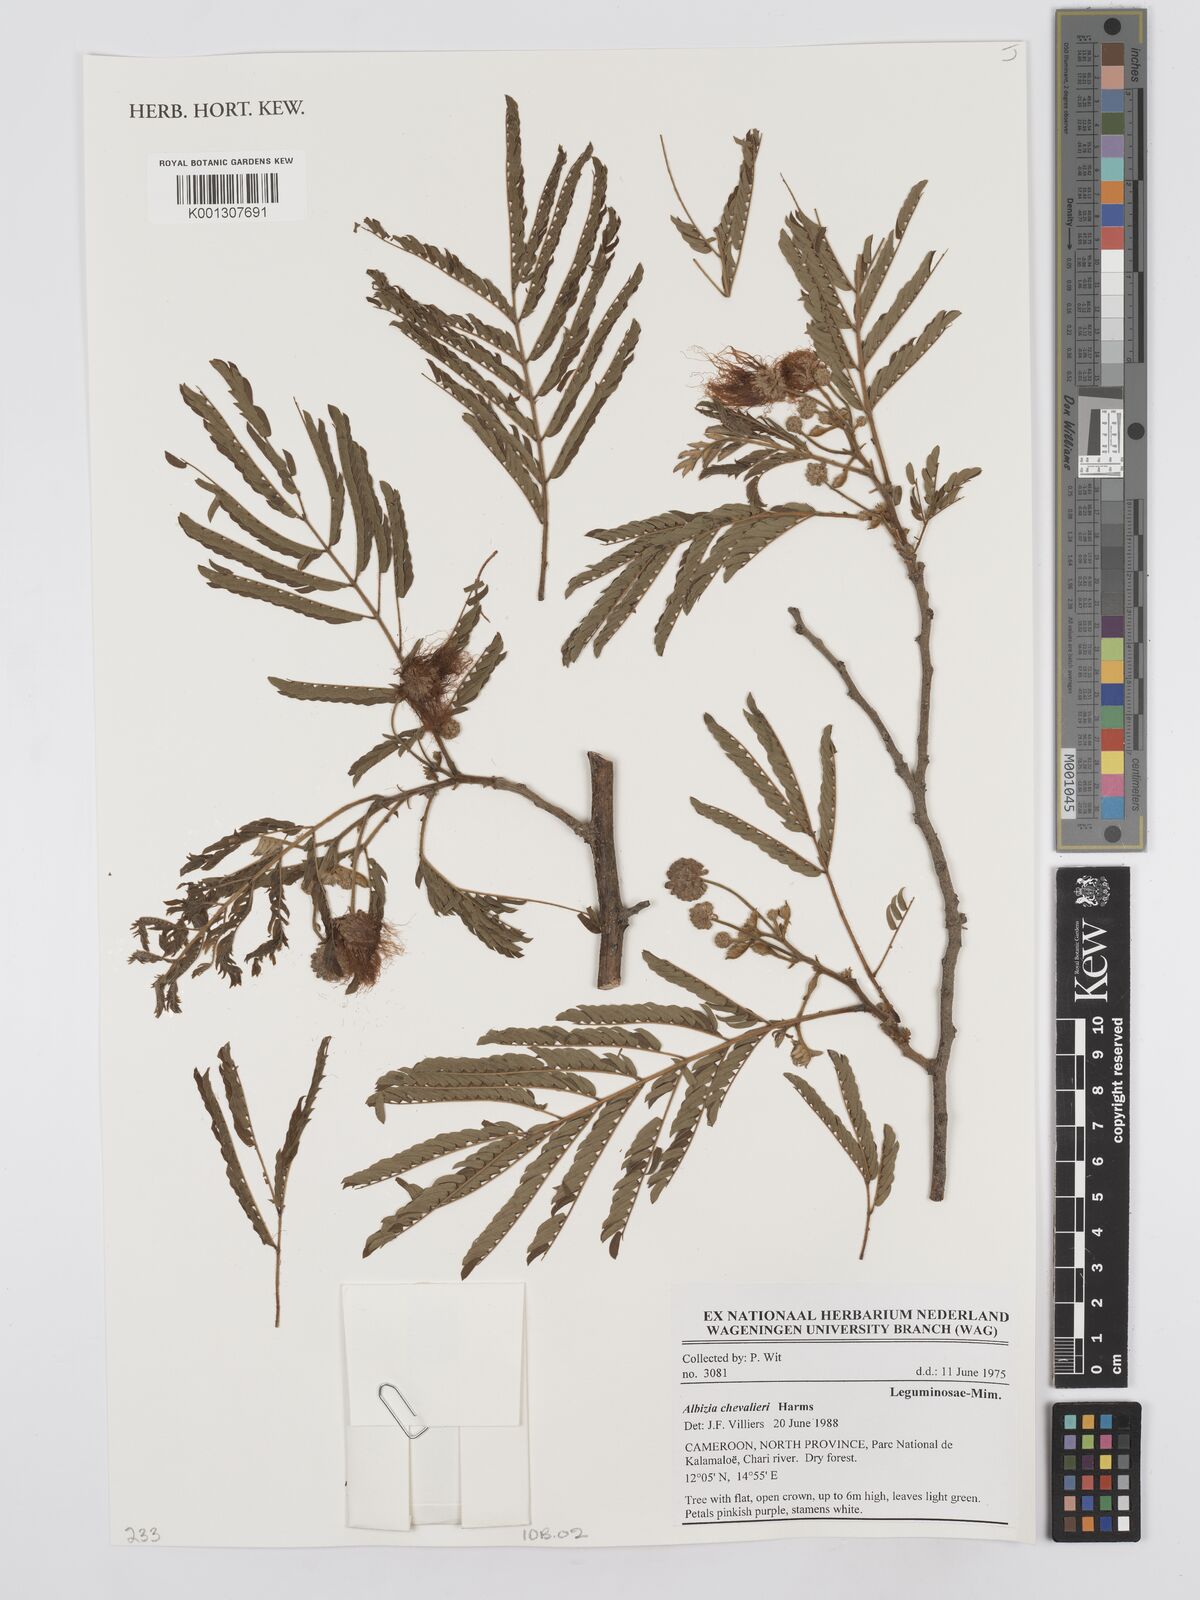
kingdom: Plantae
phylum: Tracheophyta
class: Magnoliopsida
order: Fabales
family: Fabaceae
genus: Albizia
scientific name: Albizia chevalieri
